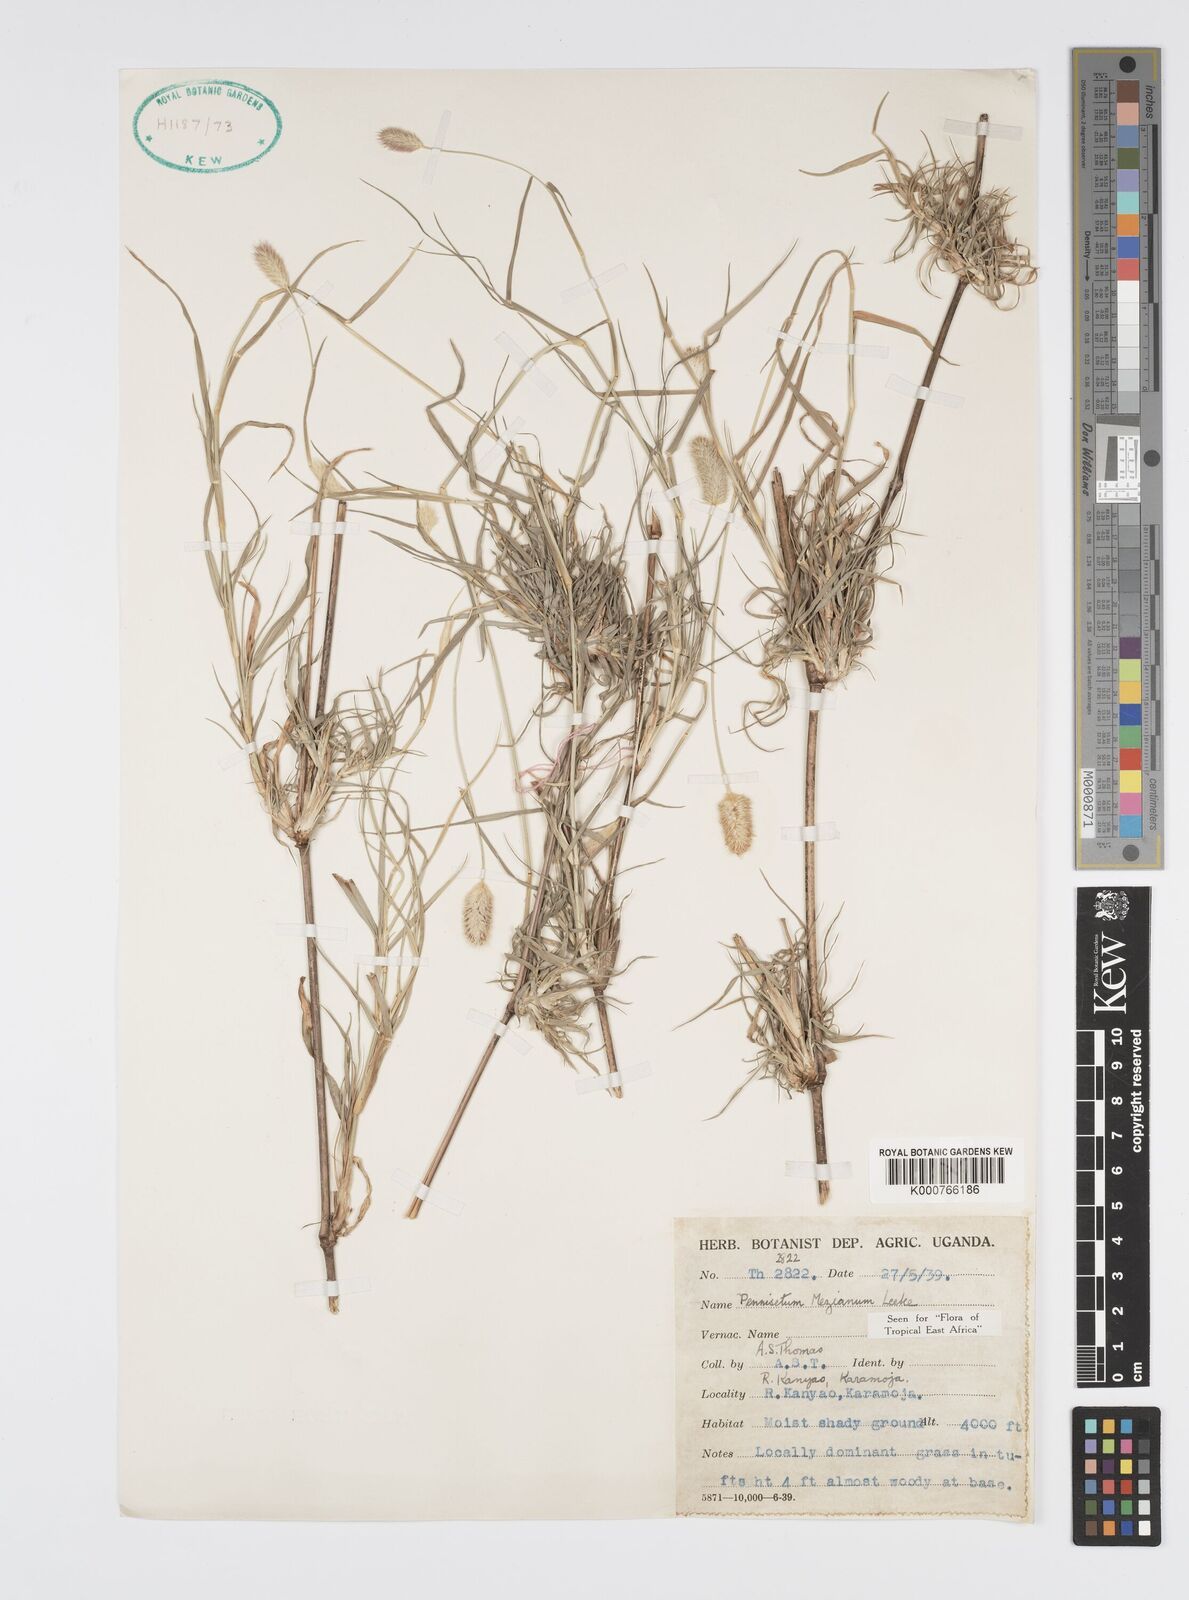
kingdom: Plantae
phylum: Tracheophyta
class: Liliopsida
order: Poales
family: Poaceae
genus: Cenchrus
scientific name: Cenchrus mezianus
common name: Bamboo grass
